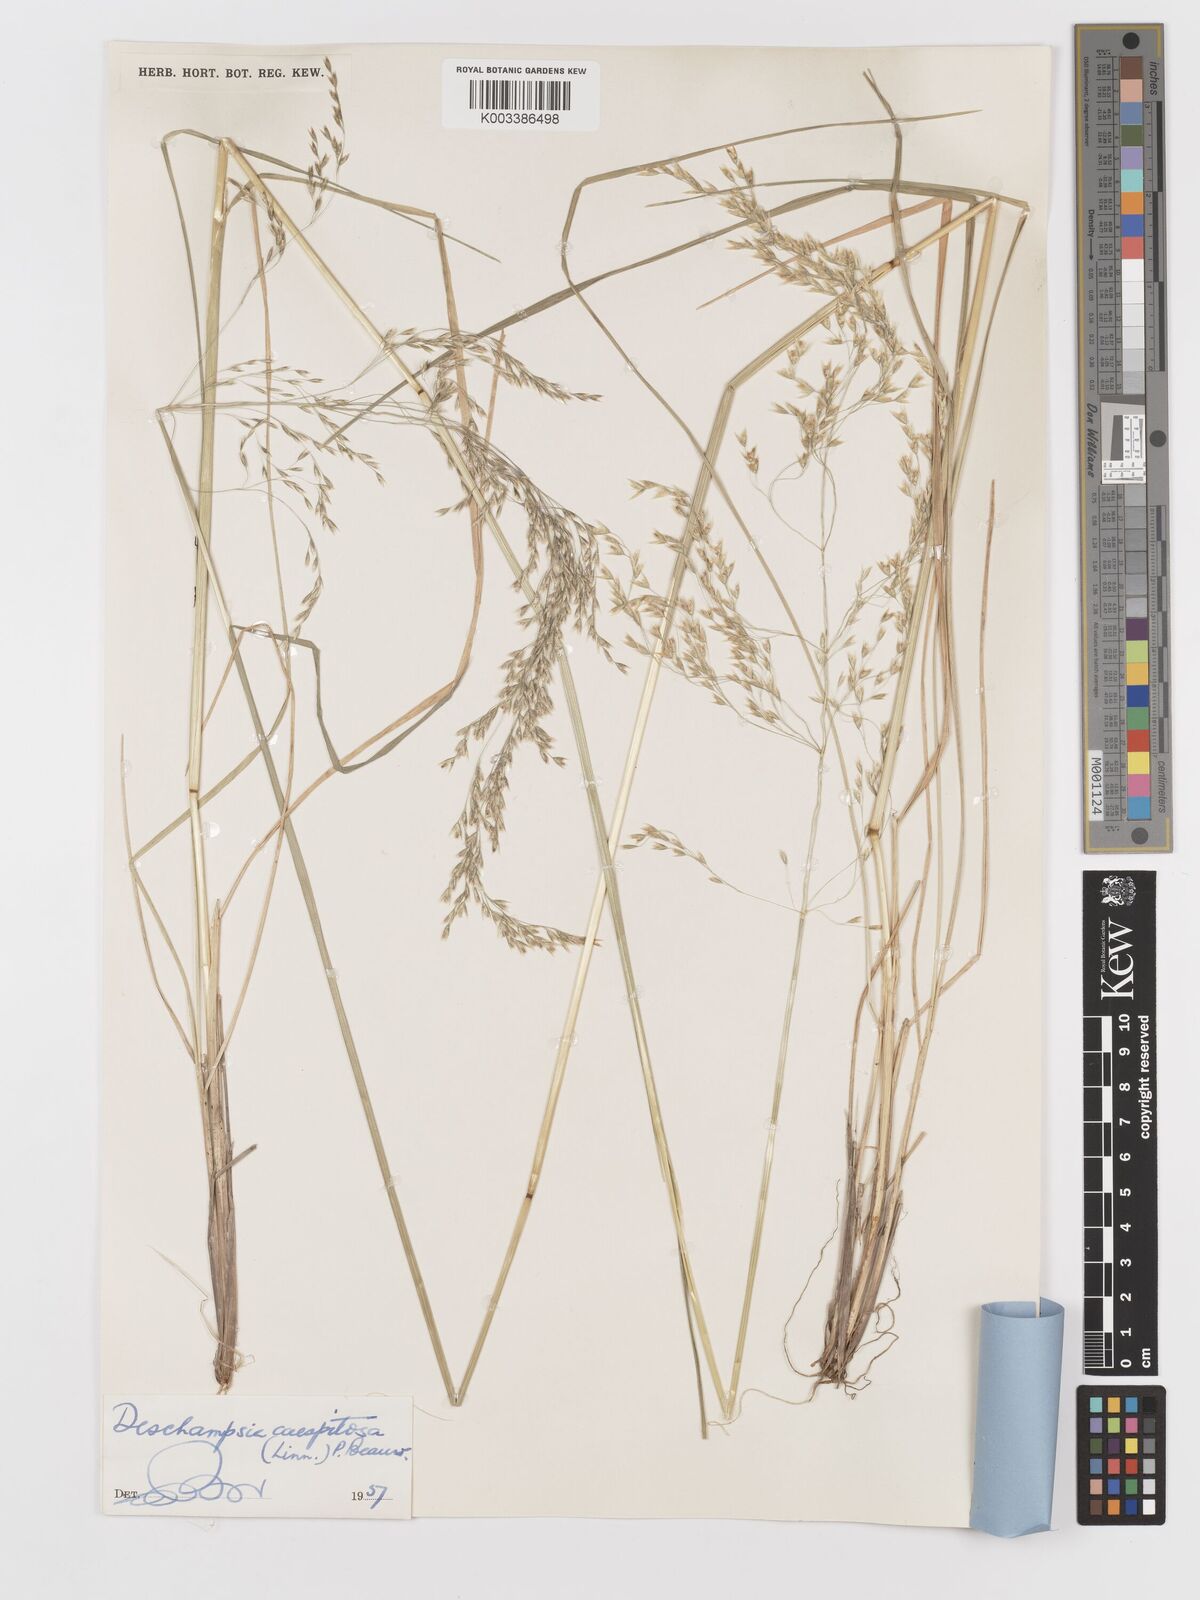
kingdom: Plantae
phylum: Tracheophyta
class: Liliopsida
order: Poales
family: Poaceae
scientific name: Poaceae
